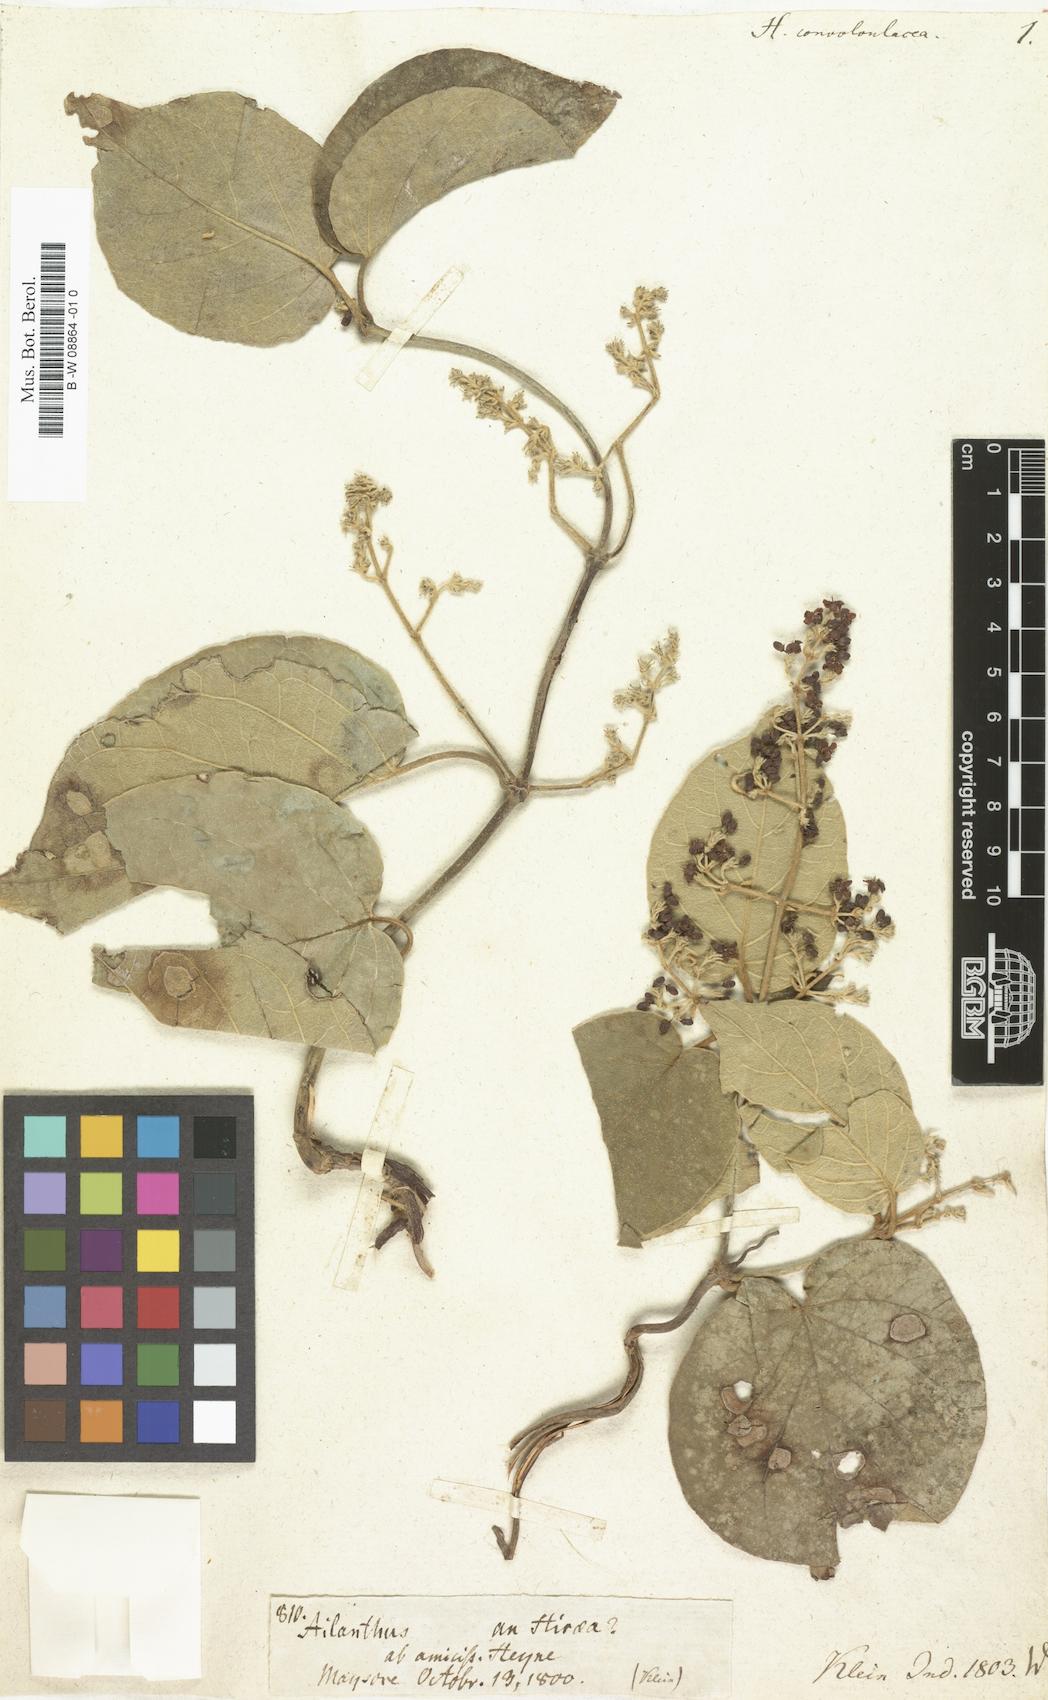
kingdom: Plantae
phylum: Tracheophyta
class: Magnoliopsida
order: Malpighiales
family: Malpighiaceae
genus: Hiraea
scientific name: Hiraea
